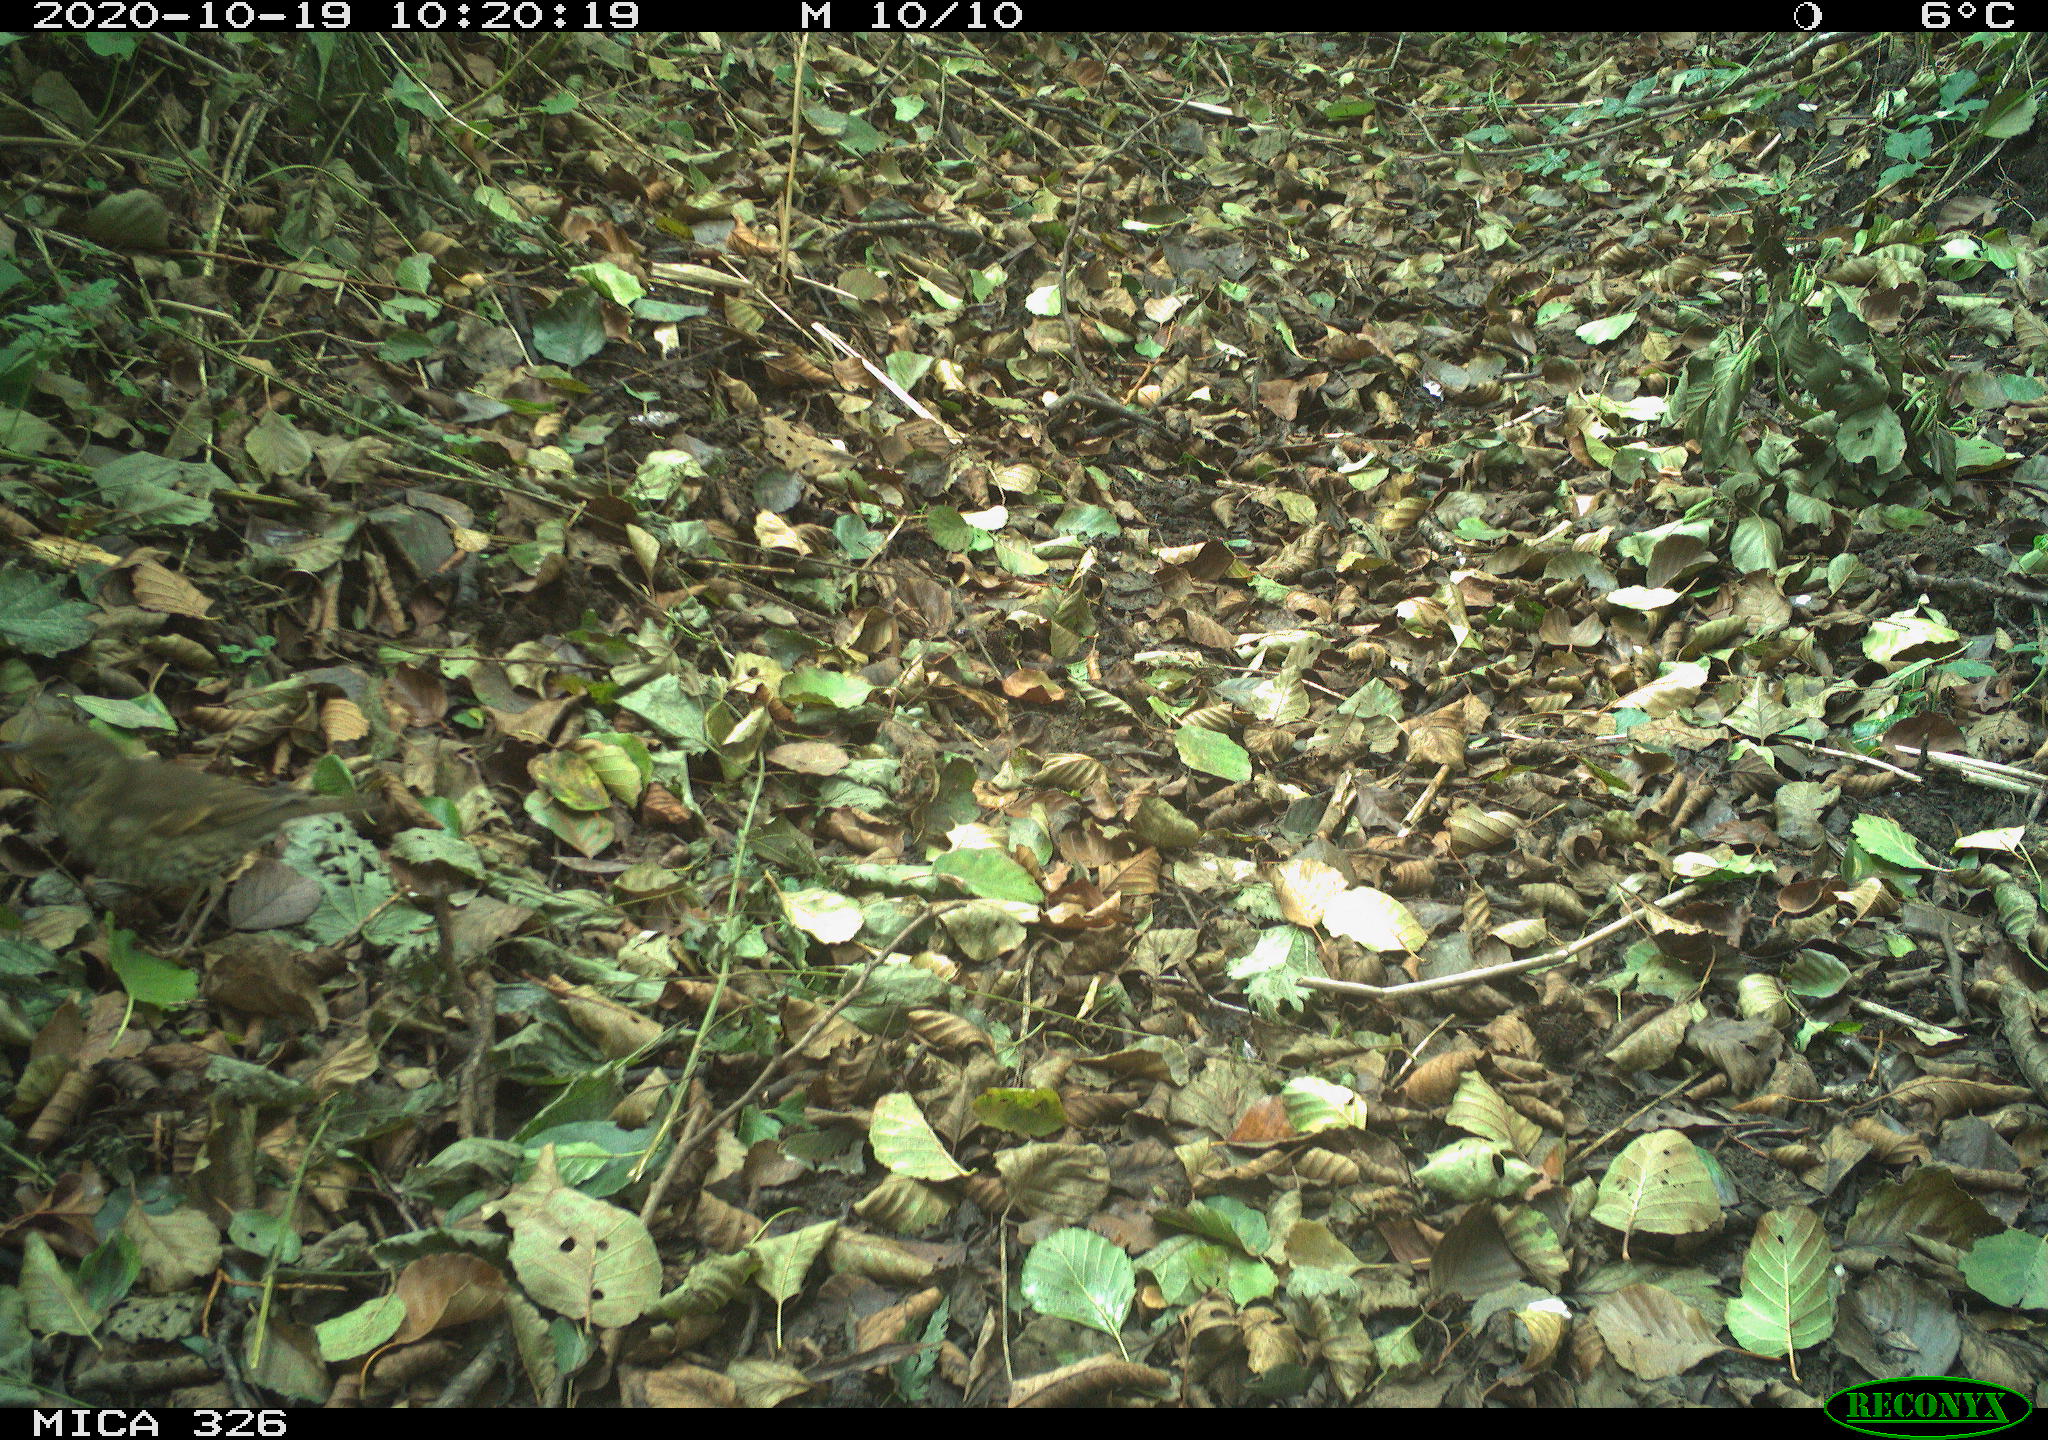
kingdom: Animalia
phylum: Chordata
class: Aves
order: Passeriformes
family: Turdidae
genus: Turdus
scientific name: Turdus philomelos
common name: Song thrush
